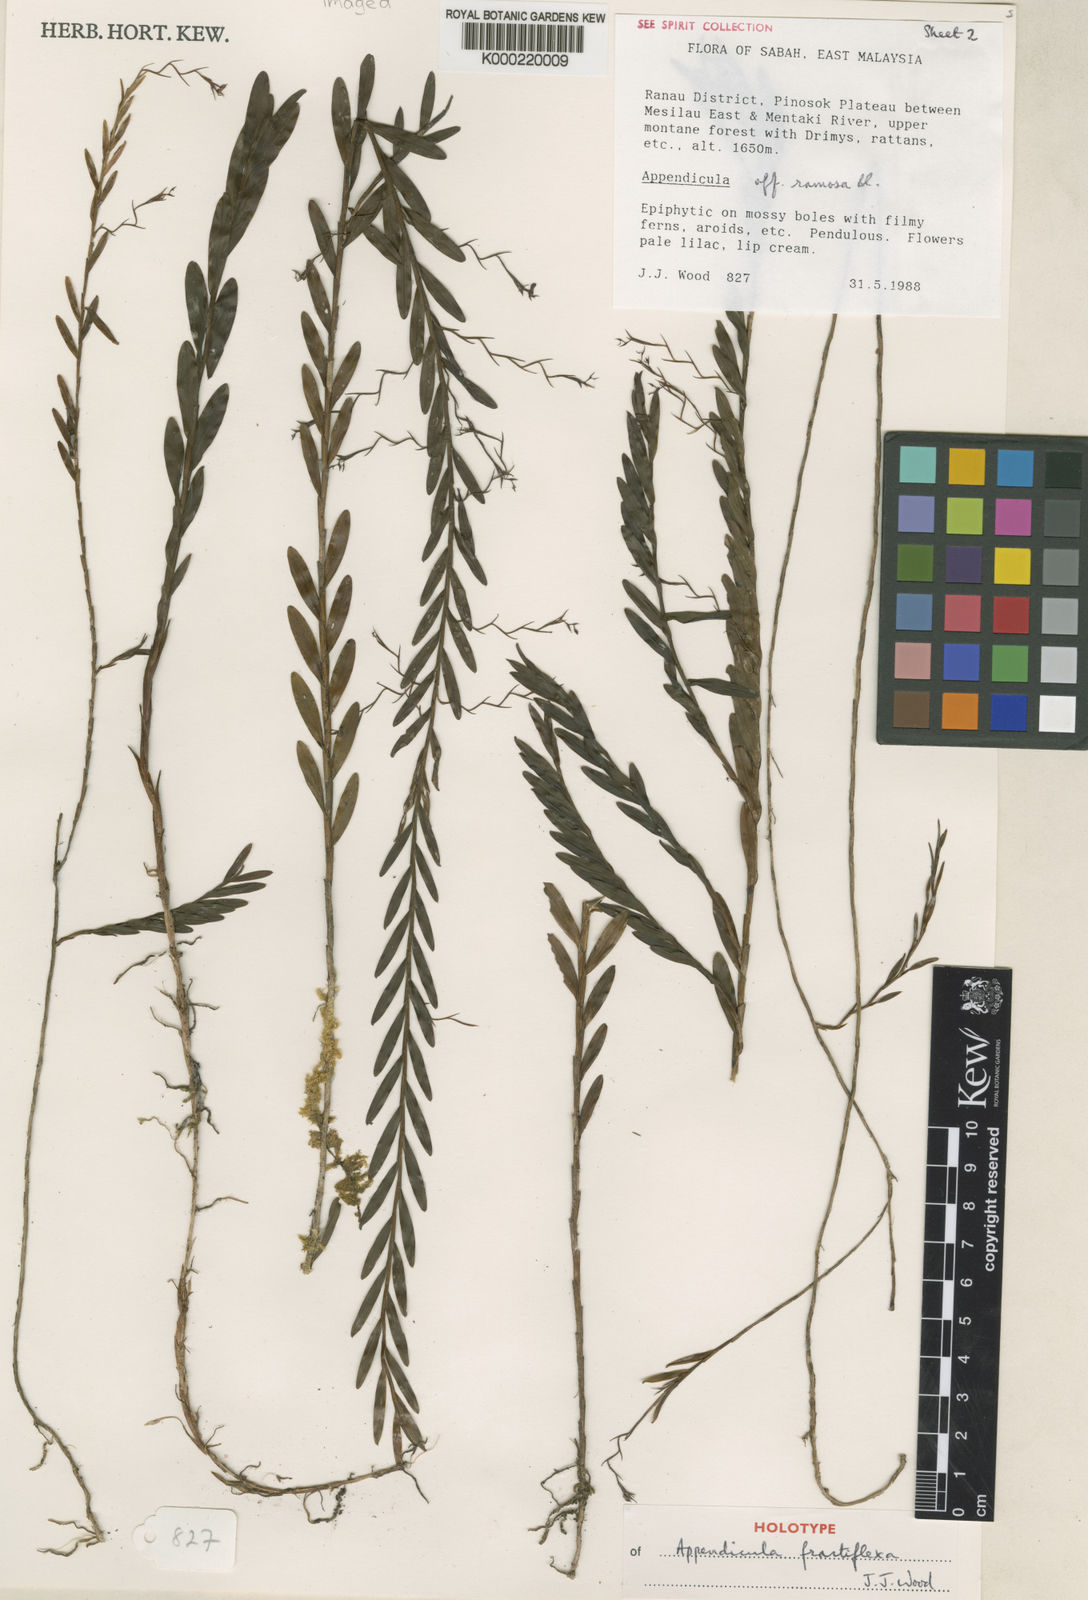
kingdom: Plantae
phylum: Tracheophyta
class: Liliopsida
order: Asparagales
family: Orchidaceae
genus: Appendicula
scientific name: Appendicula fractiflexa
